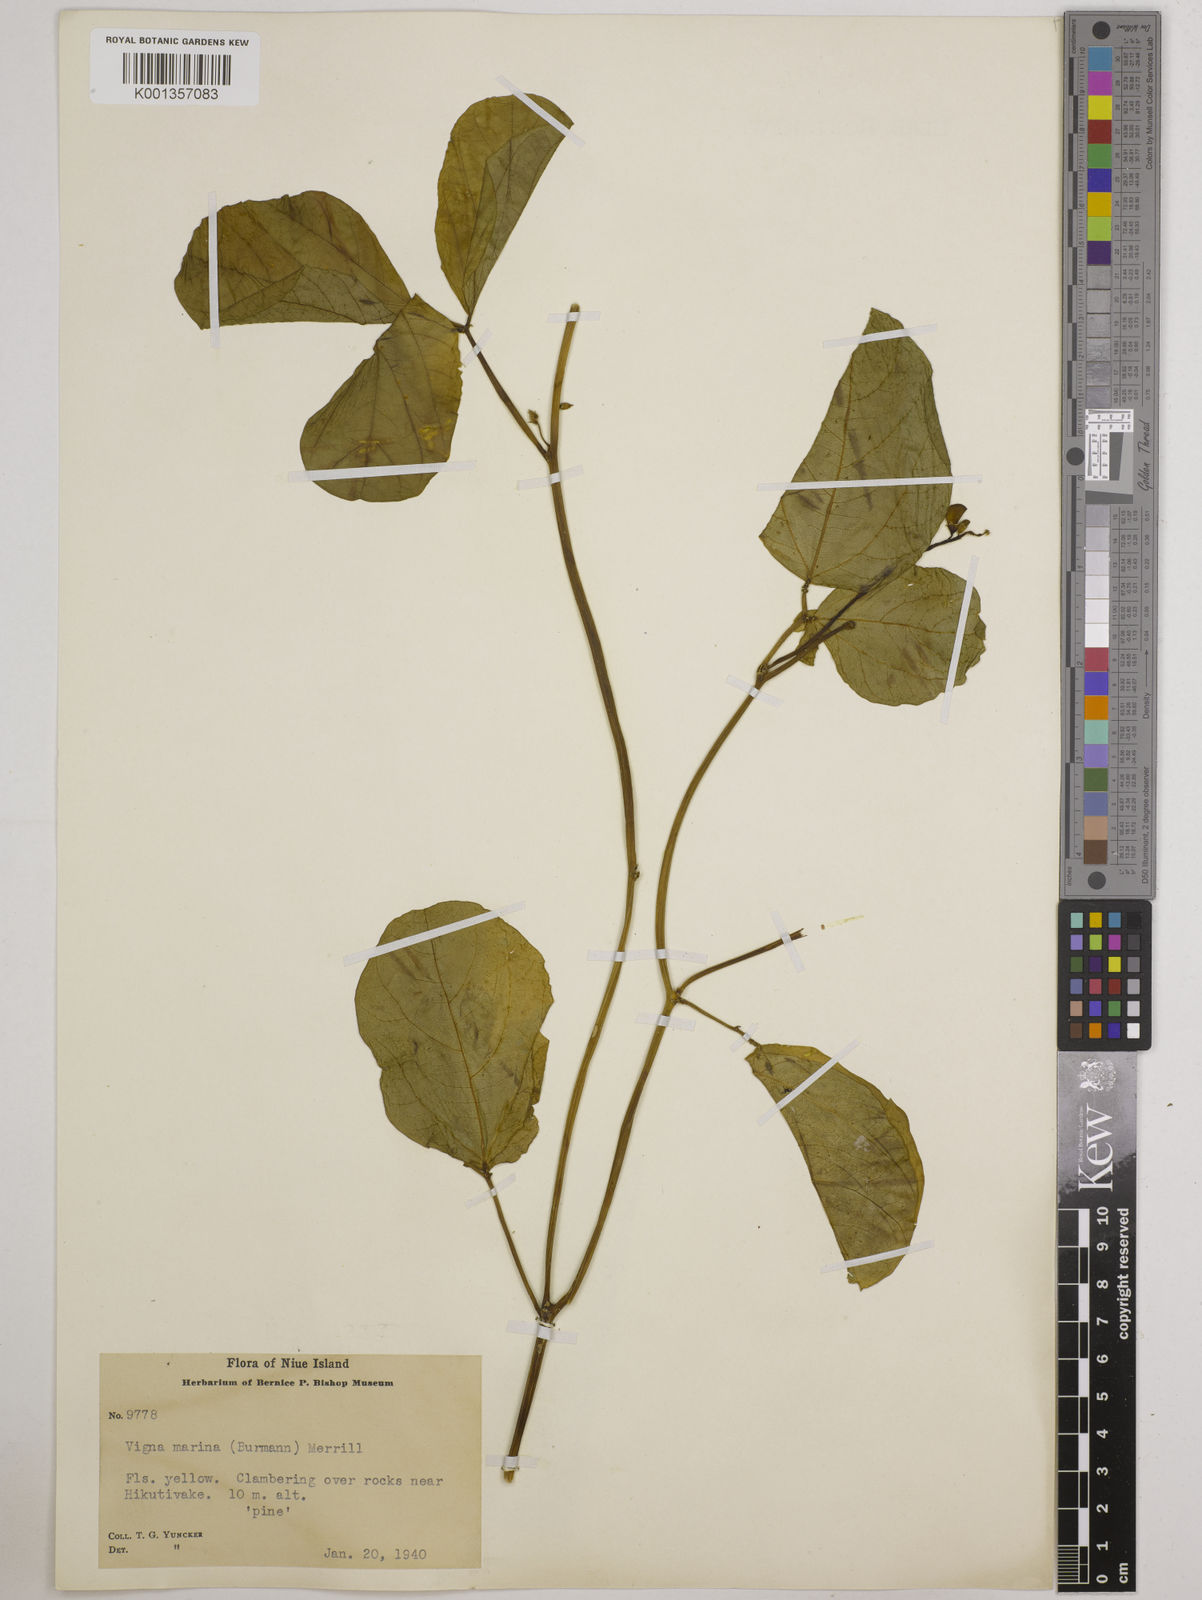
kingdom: Plantae
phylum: Tracheophyta
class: Magnoliopsida
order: Fabales
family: Fabaceae
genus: Vigna
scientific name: Vigna marina
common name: Dune-bean
